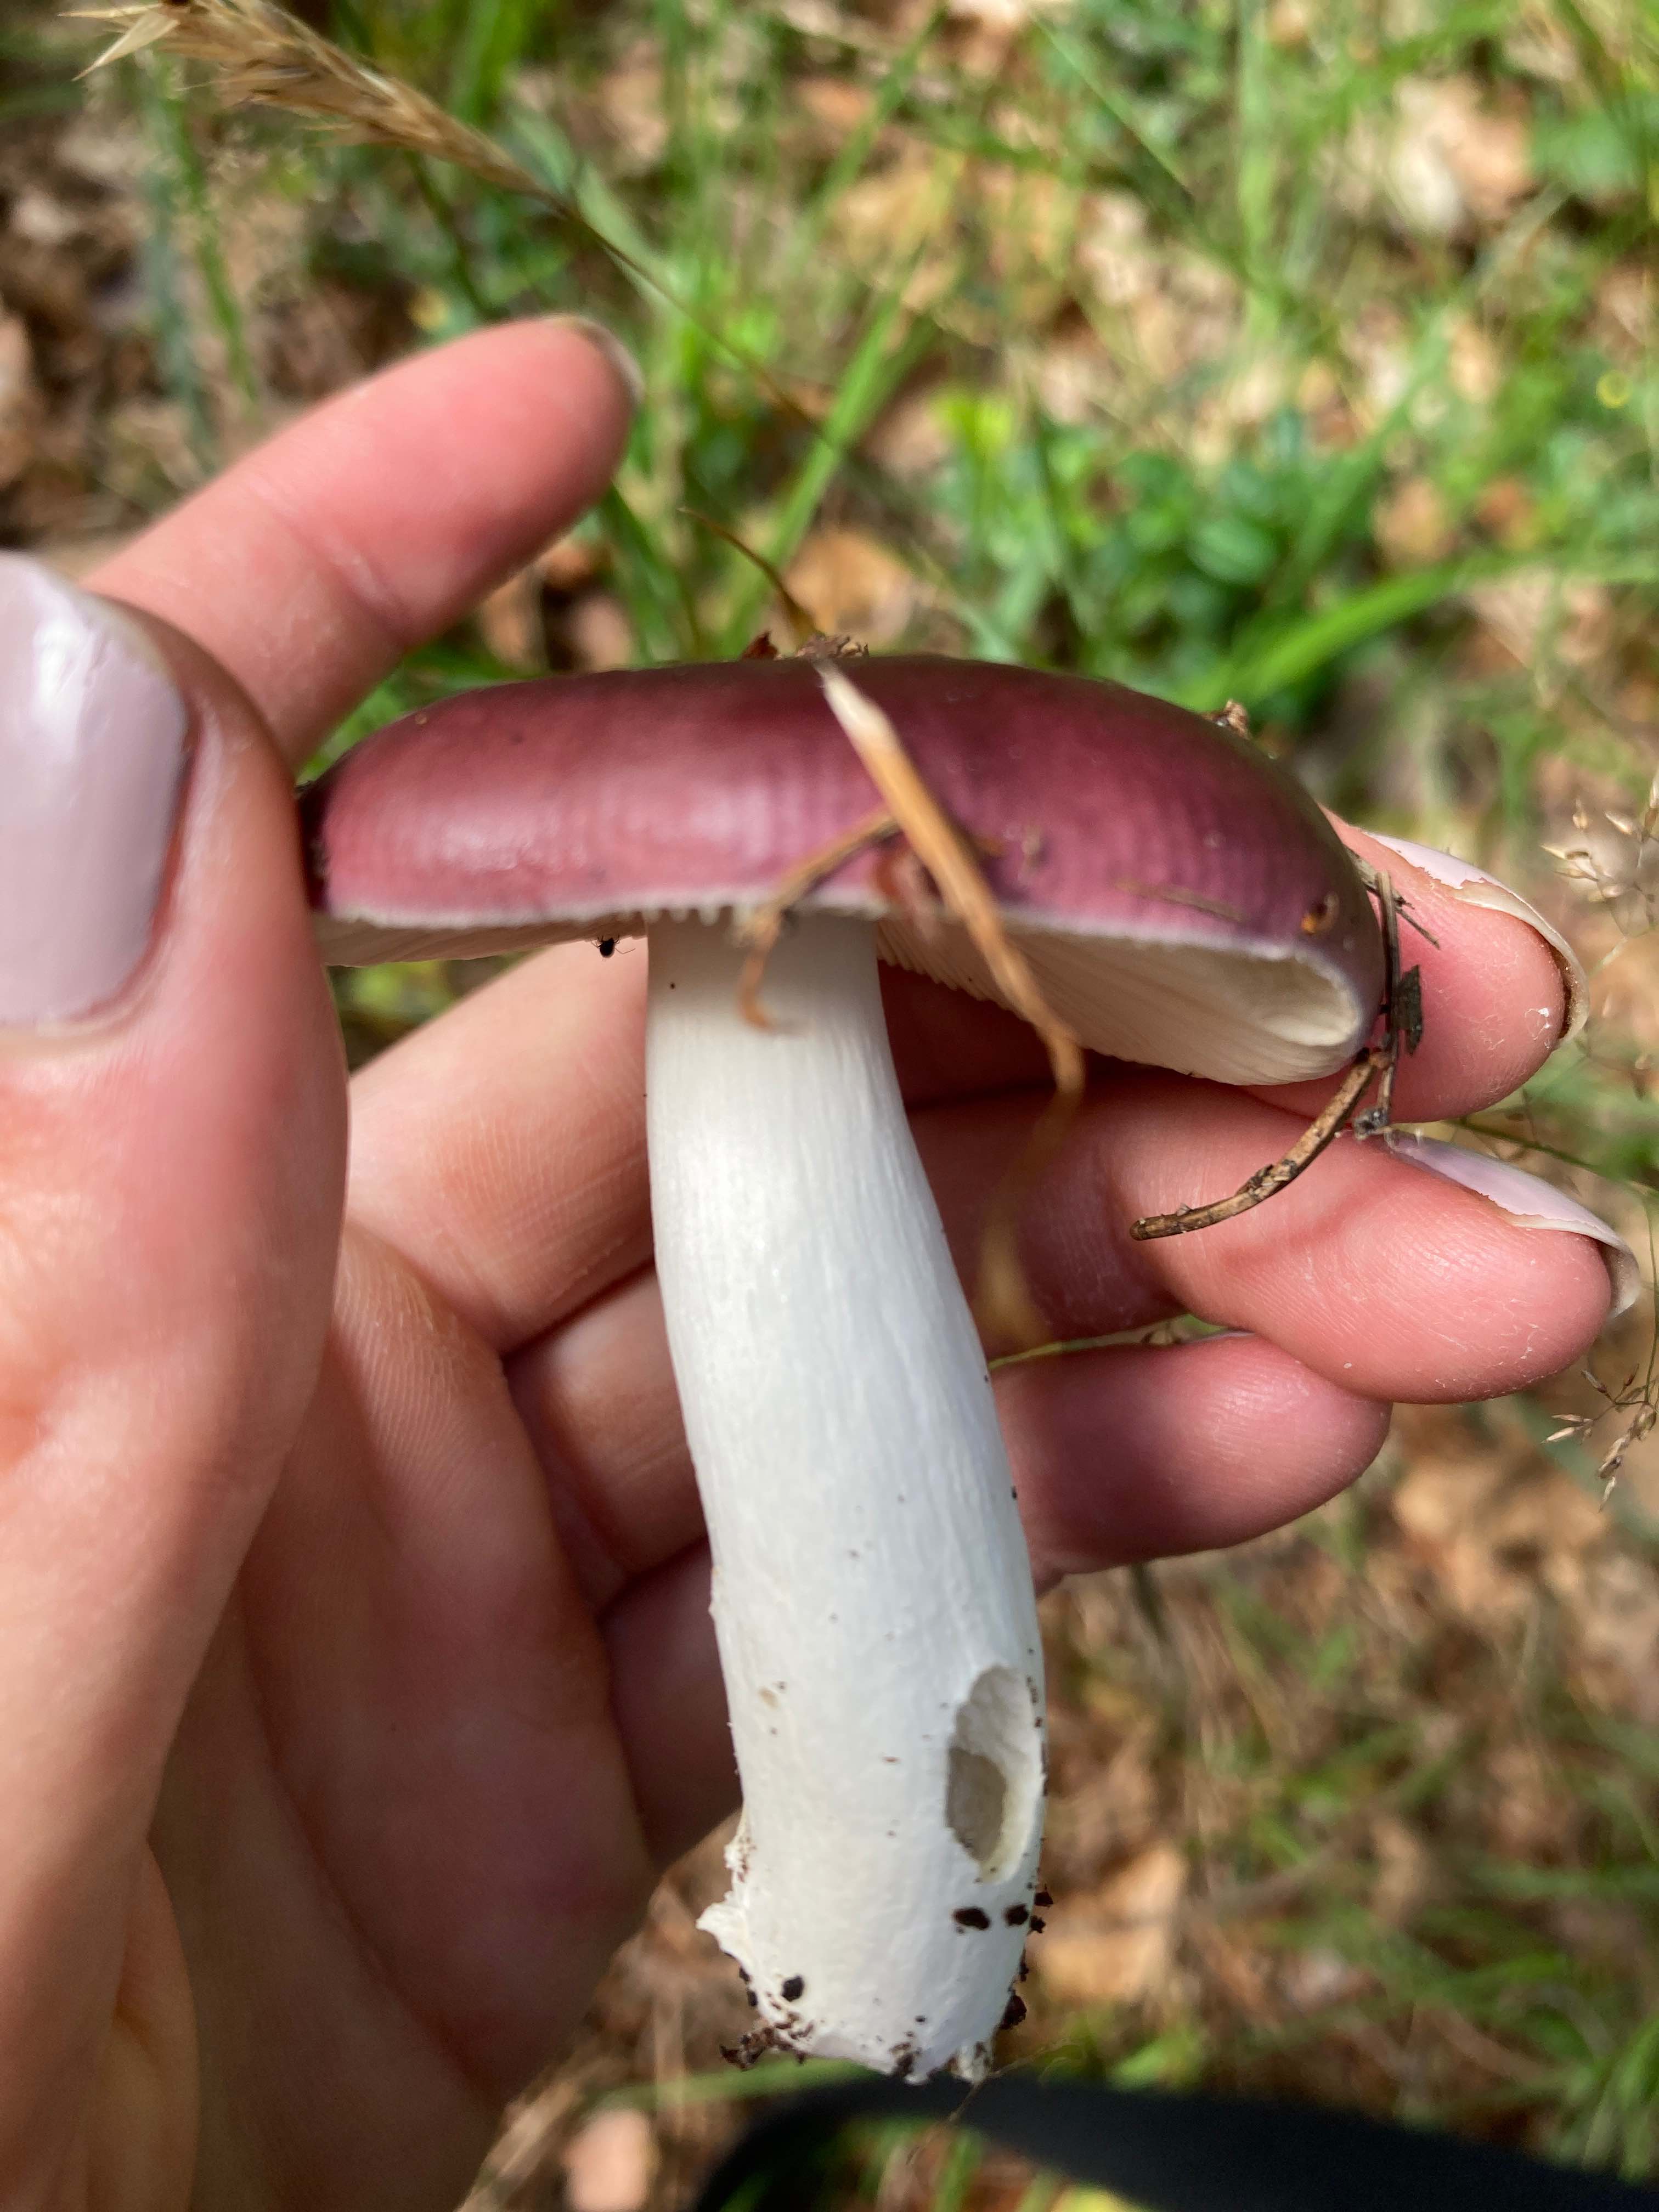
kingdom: Fungi
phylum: Basidiomycota
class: Agaricomycetes
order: Russulales
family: Russulaceae
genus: Russula
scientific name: Russula
